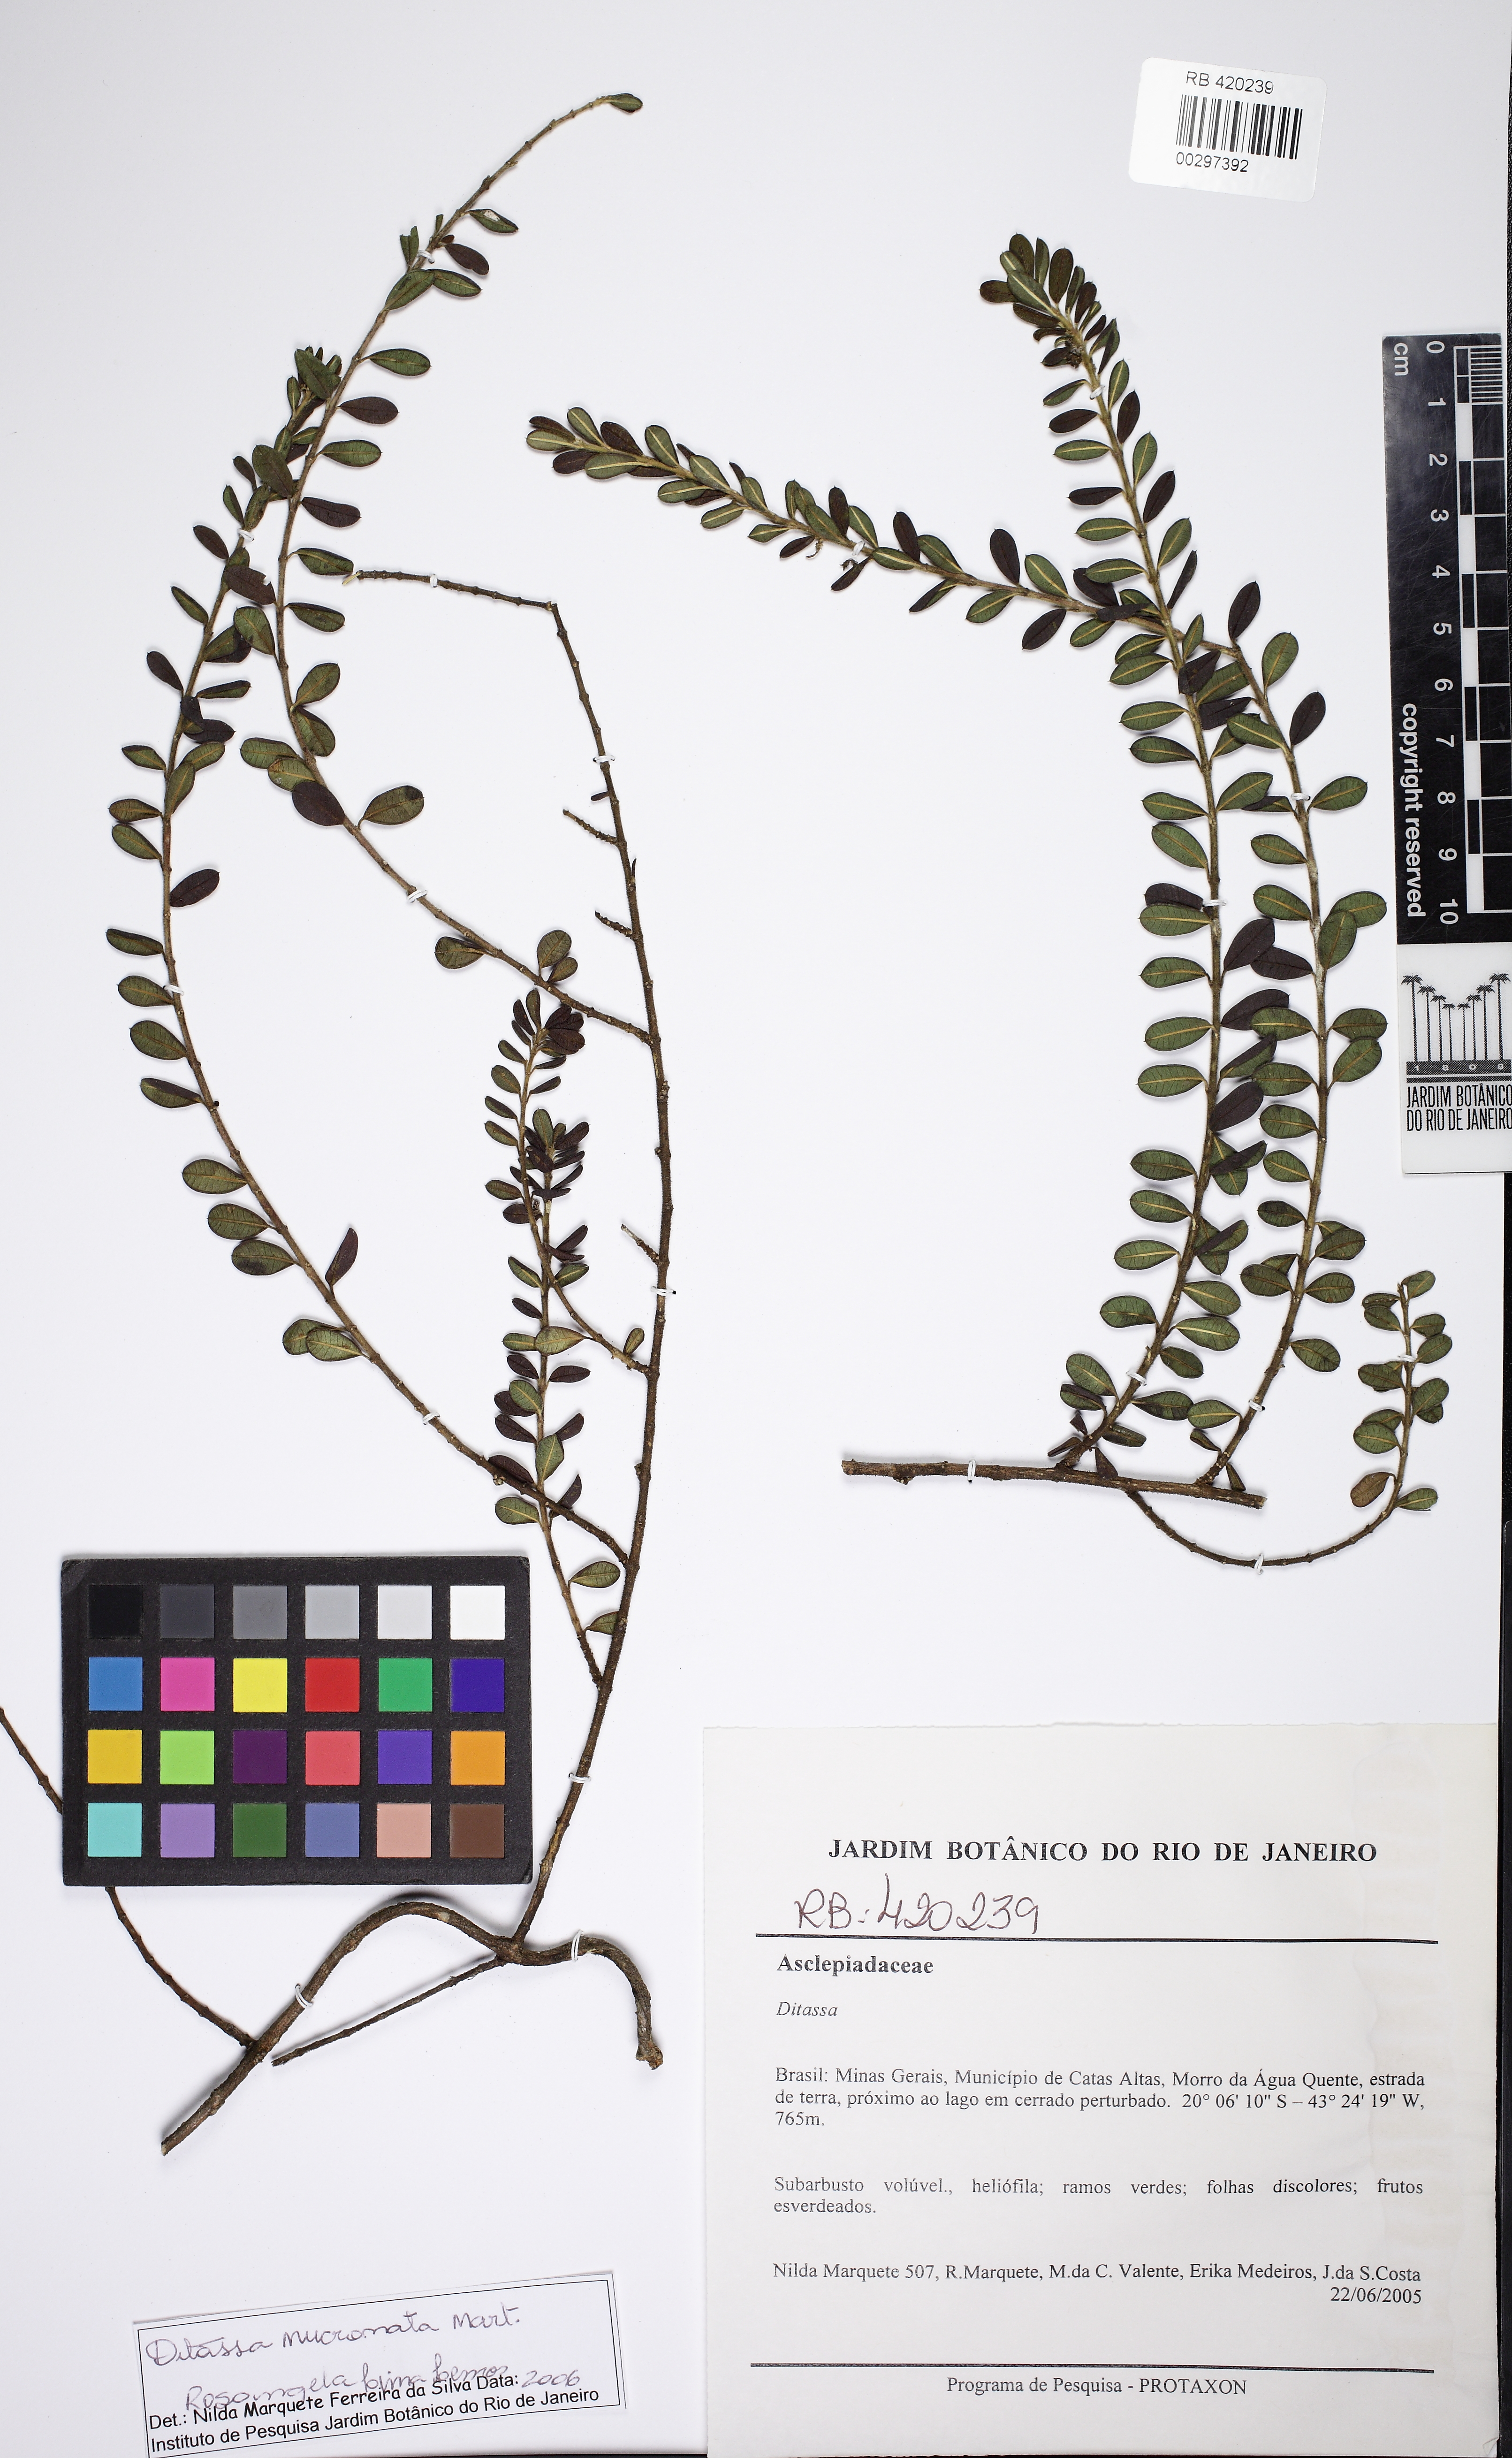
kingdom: Plantae
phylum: Tracheophyta
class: Magnoliopsida
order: Gentianales
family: Apocynaceae
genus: Ditassa
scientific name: Ditassa
